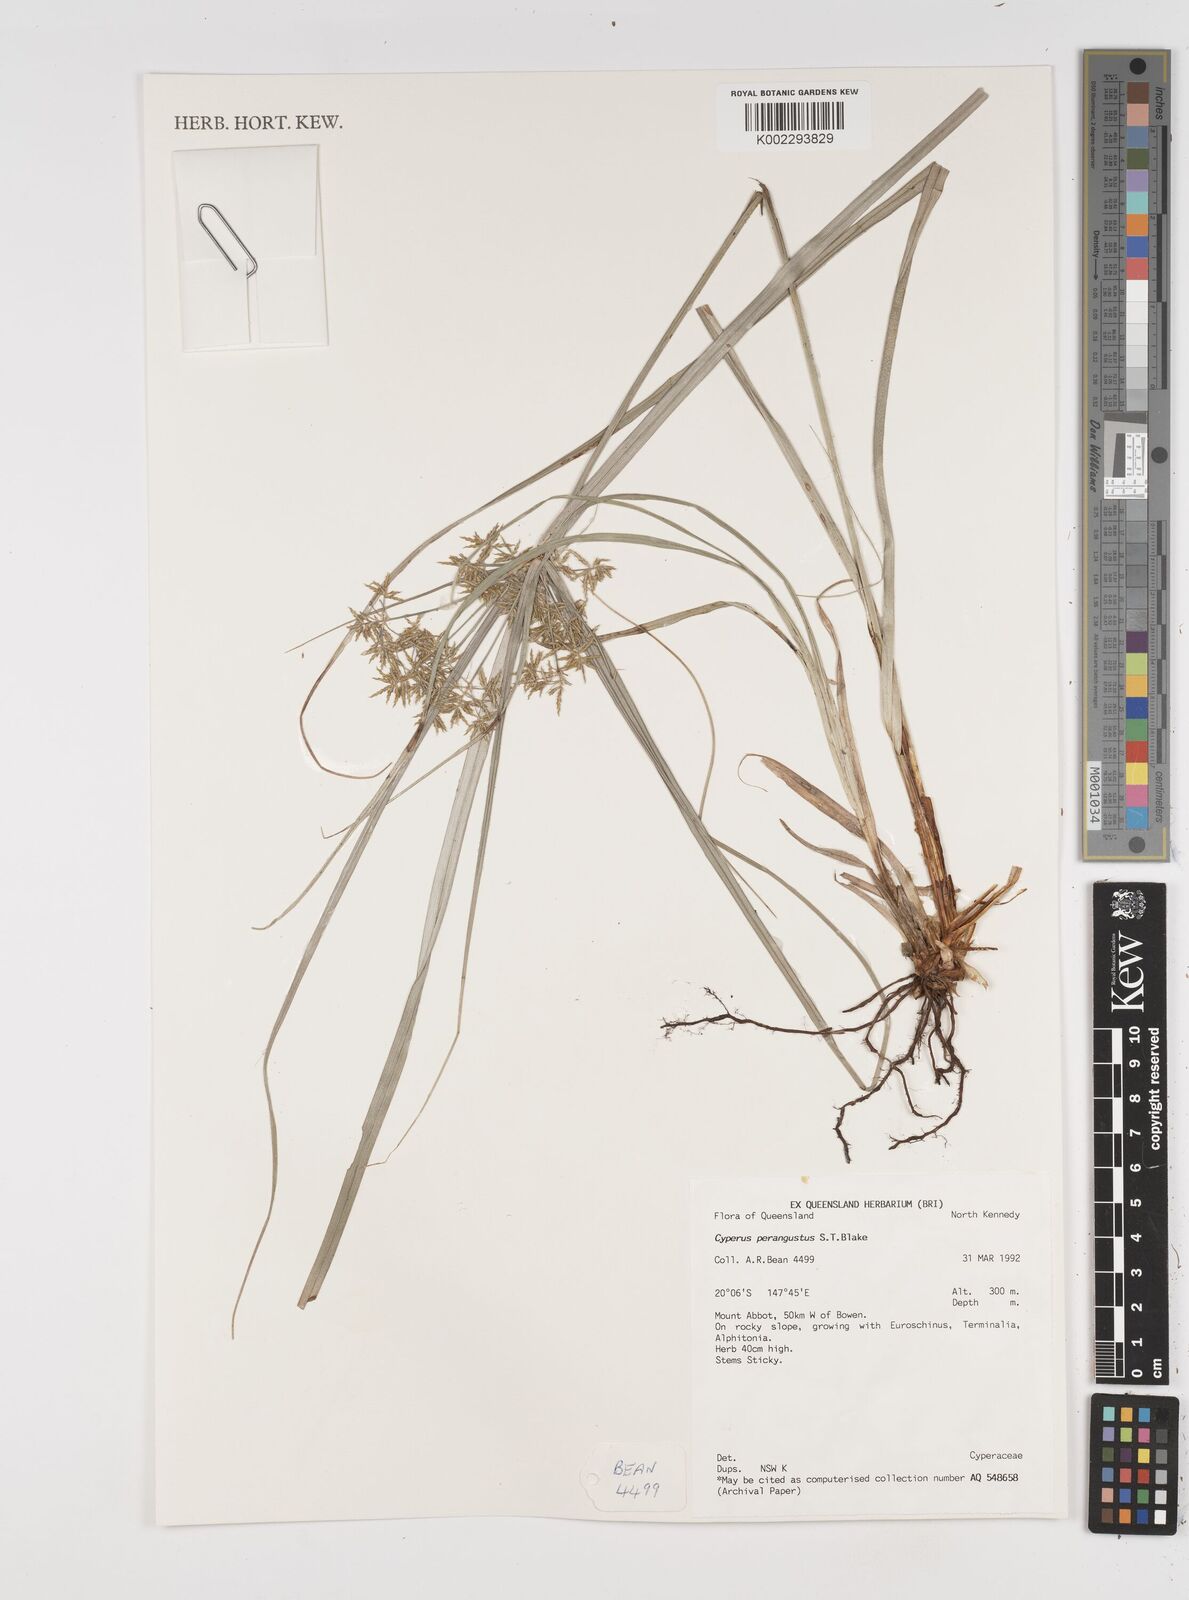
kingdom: Plantae
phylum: Tracheophyta
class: Liliopsida
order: Poales
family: Cyperaceae
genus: Cyperus
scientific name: Cyperus perangustus
